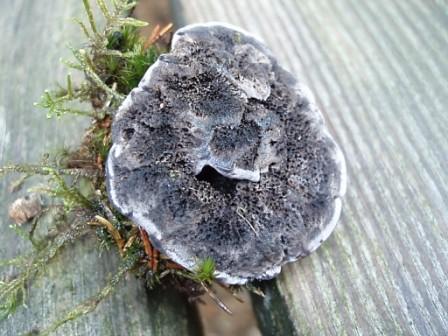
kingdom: Fungi
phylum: Basidiomycota
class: Agaricomycetes
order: Thelephorales
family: Thelephoraceae
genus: Phellodon
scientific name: Phellodon
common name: mørk duftpigsvamp
